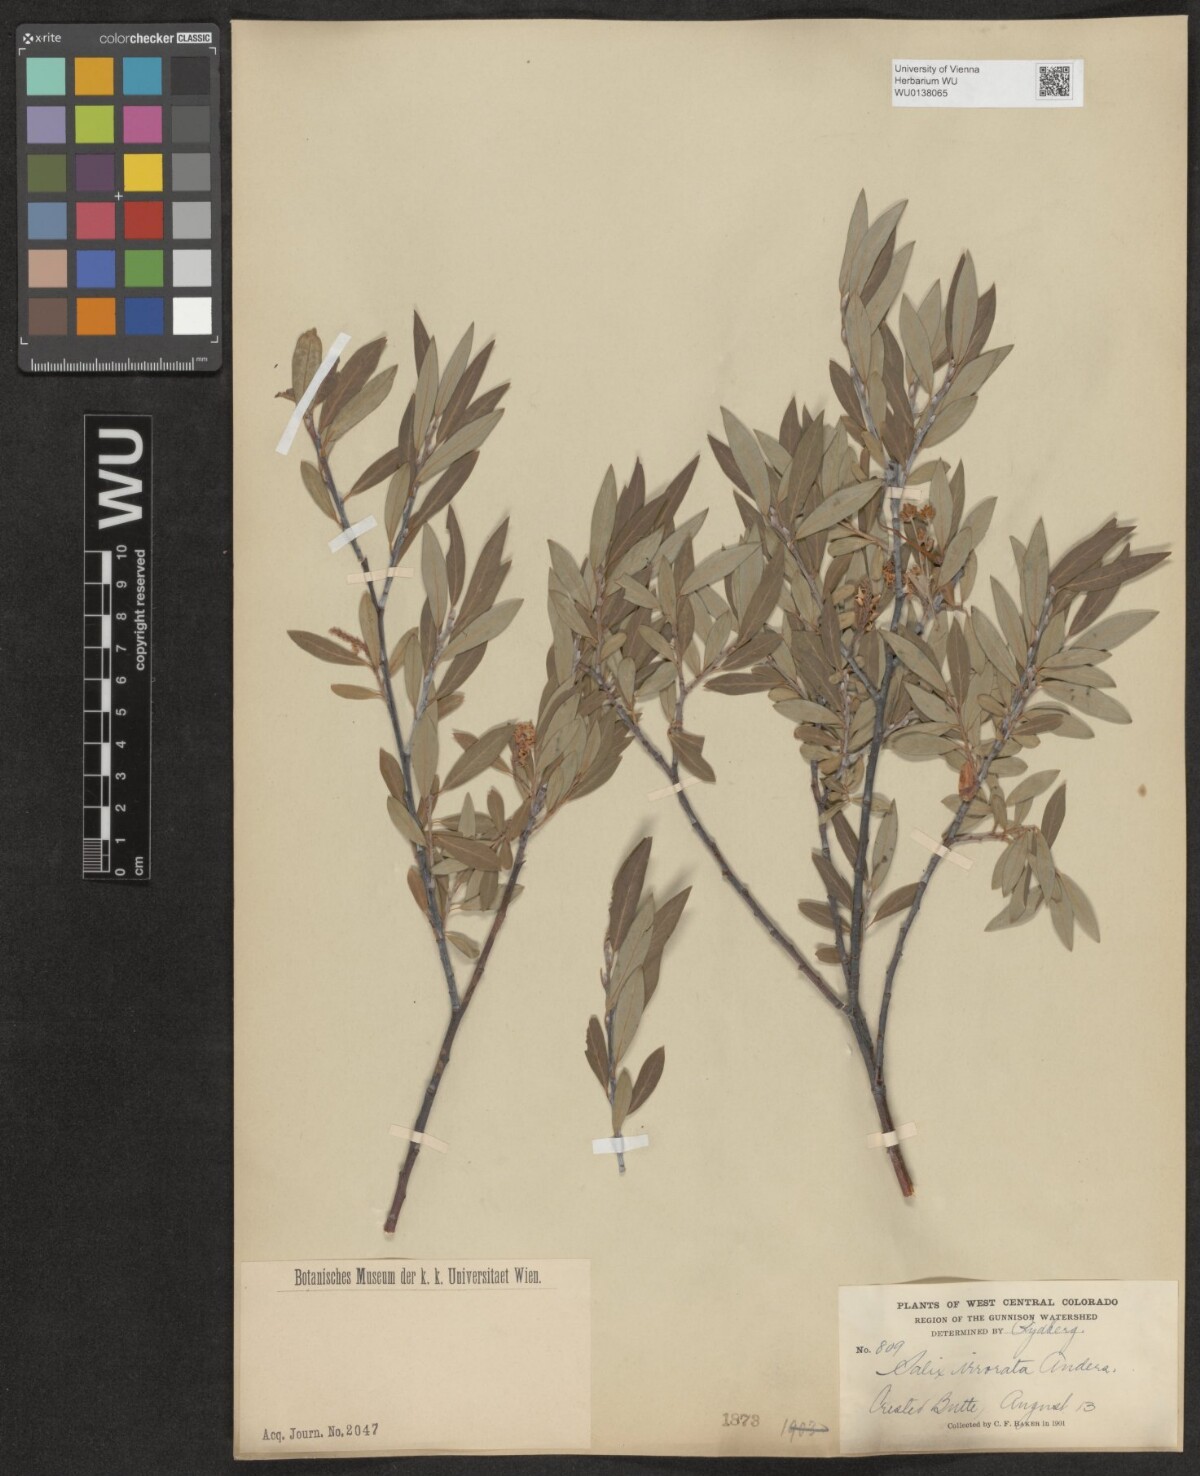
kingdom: Plantae
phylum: Tracheophyta
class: Magnoliopsida
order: Malpighiales
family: Salicaceae
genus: Salix
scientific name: Salix irrorata
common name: Blue-stem willow
